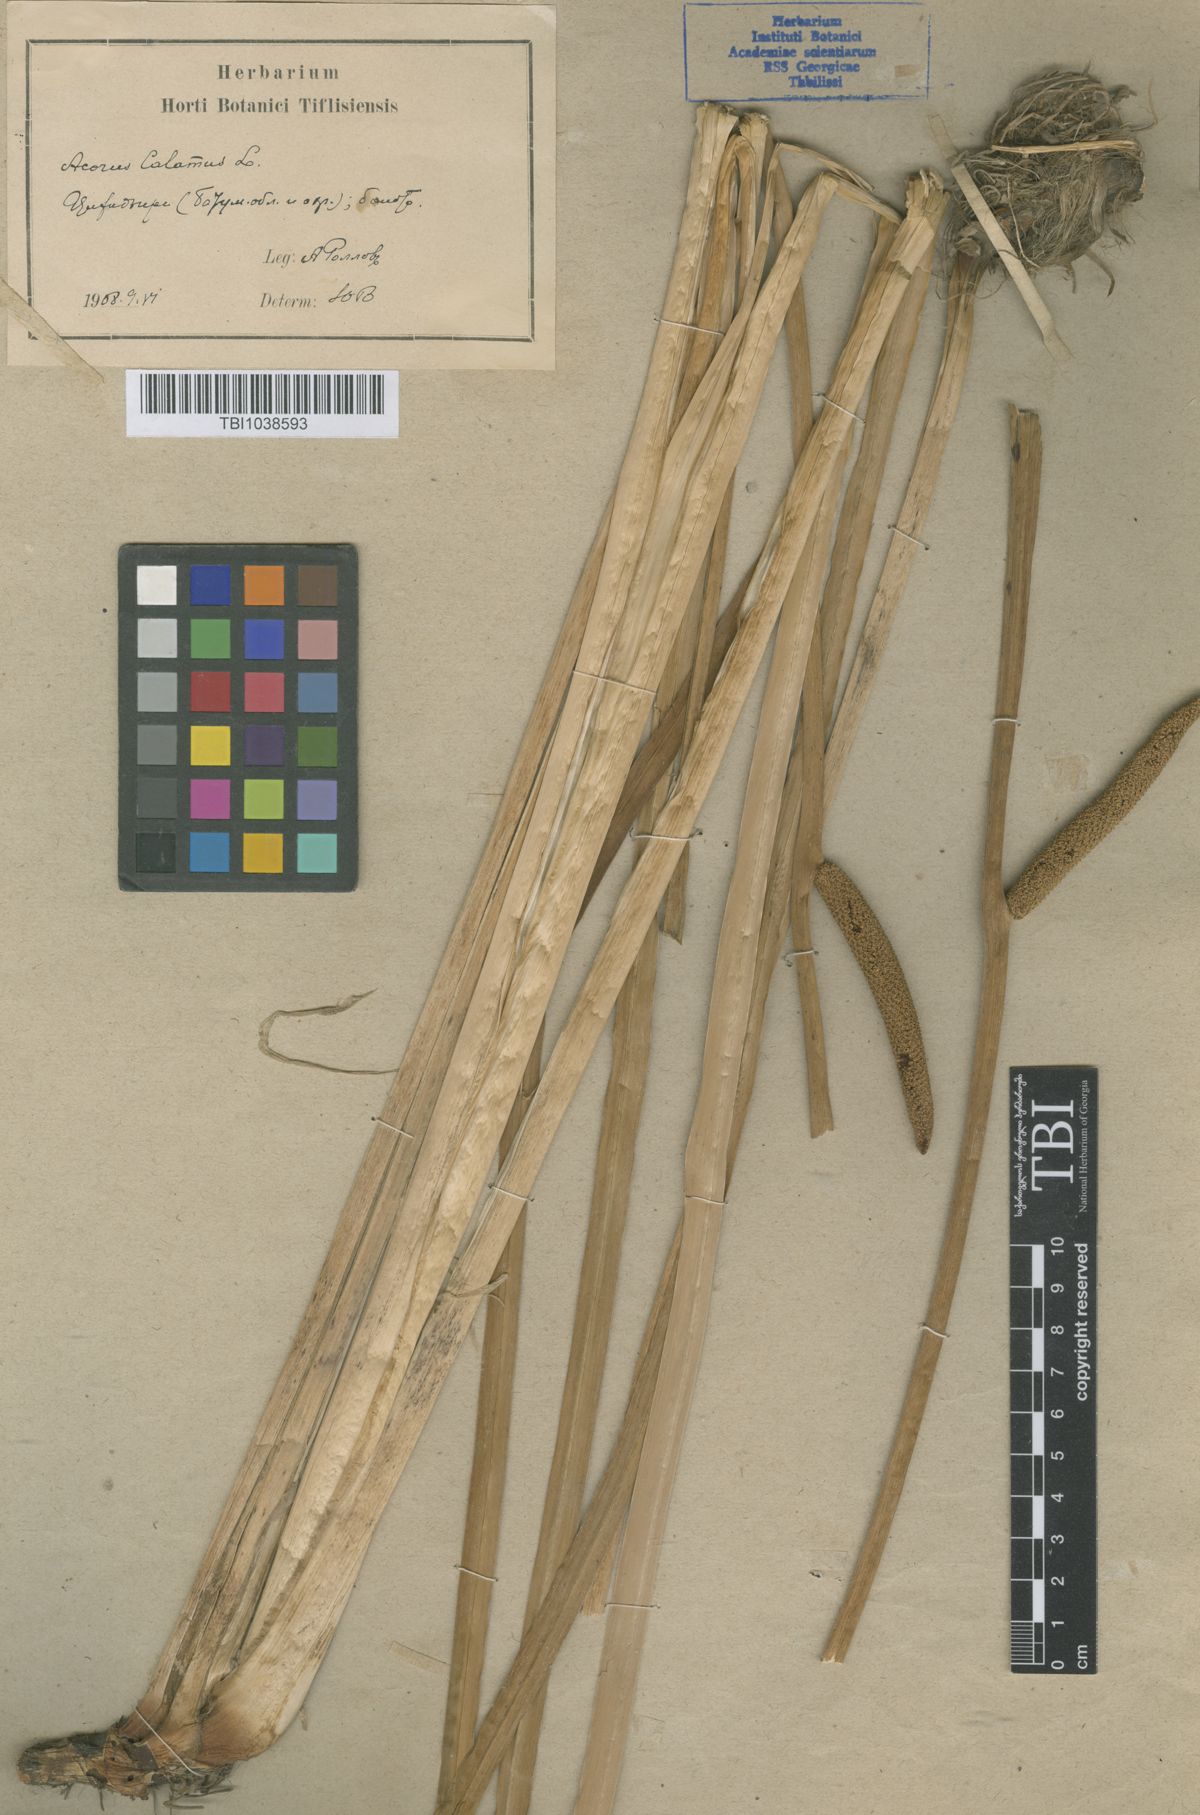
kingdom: Plantae
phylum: Tracheophyta
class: Liliopsida
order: Acorales
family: Acoraceae
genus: Acorus
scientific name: Acorus calamus
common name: Sweet-flag
